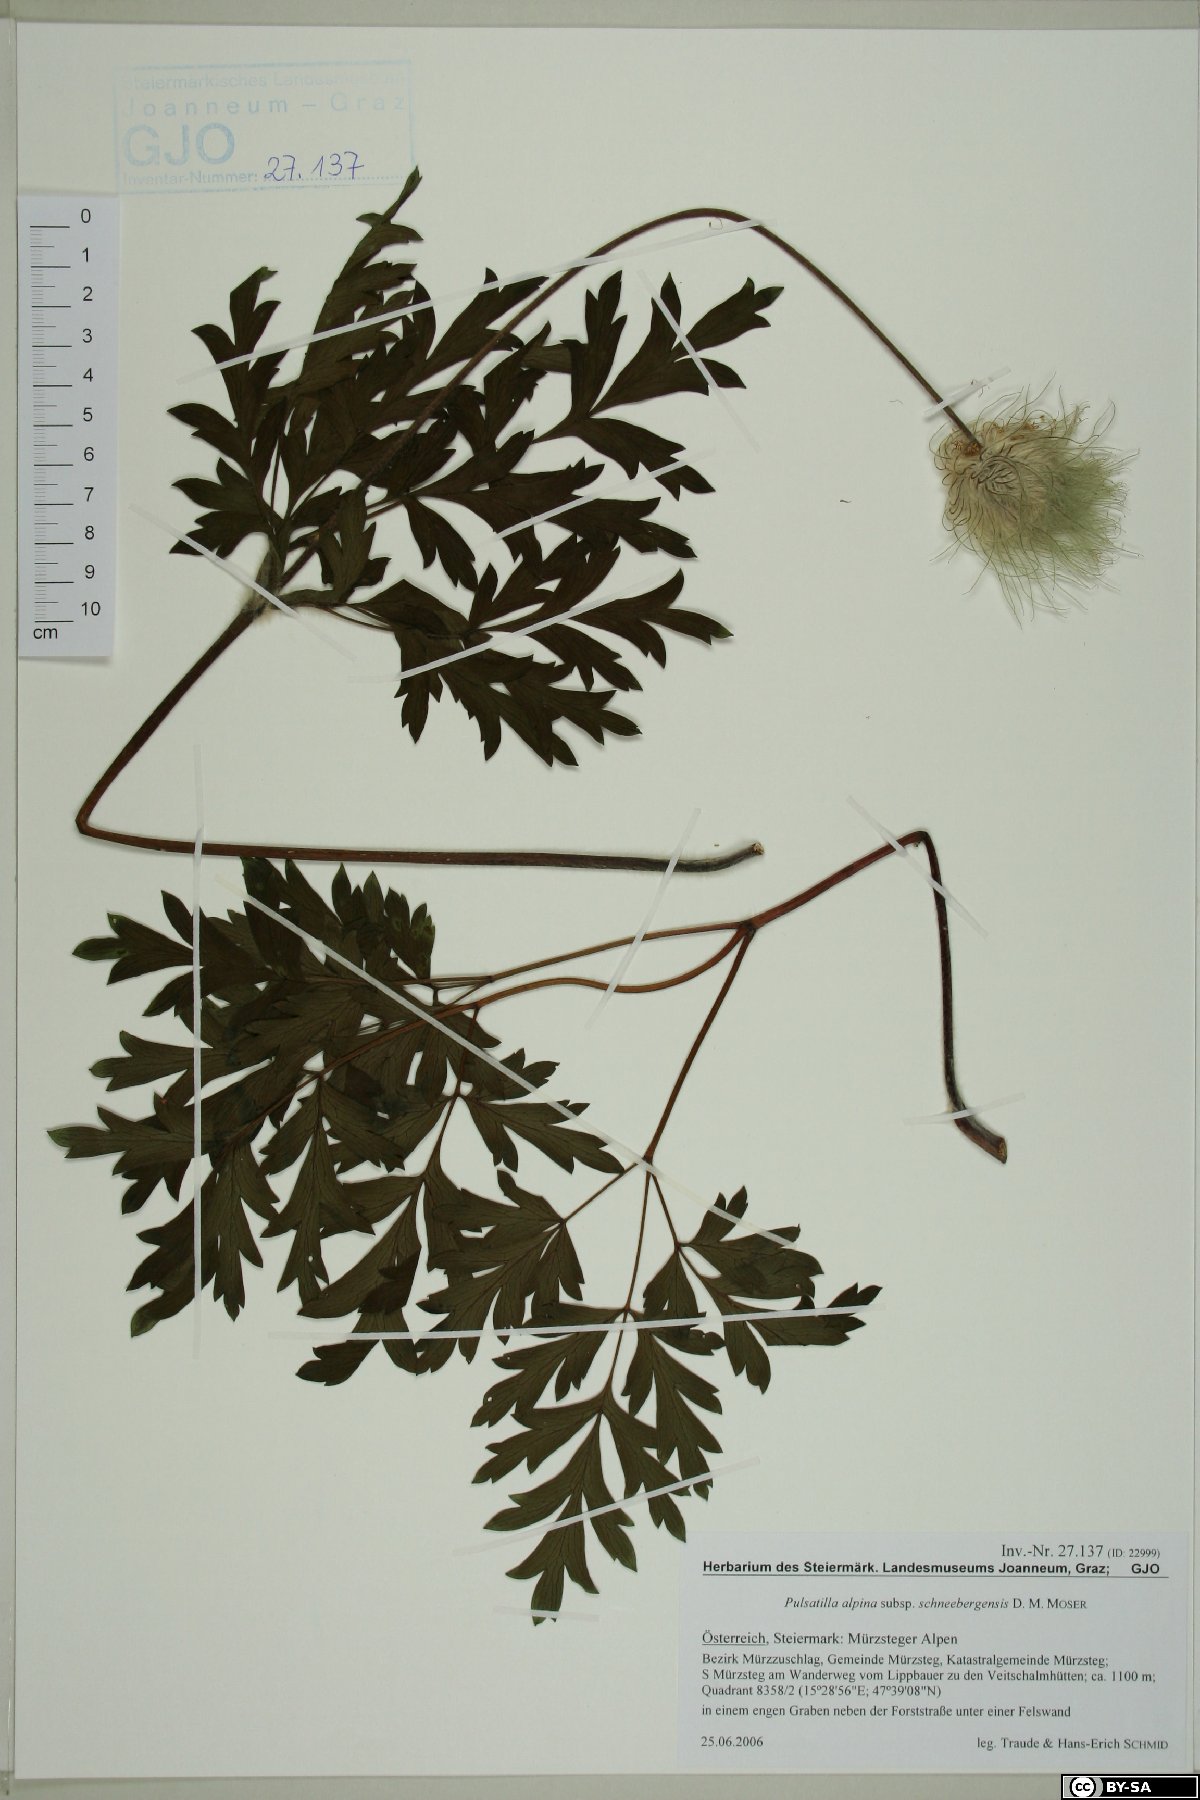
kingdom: Plantae
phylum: Tracheophyta
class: Magnoliopsida
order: Ranunculales
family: Ranunculaceae
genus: Pulsatilla
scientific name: Pulsatilla alpina
